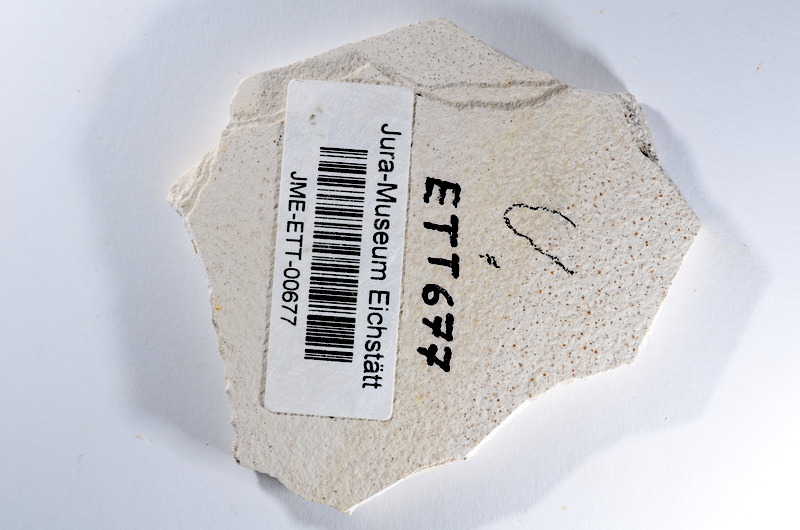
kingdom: Animalia
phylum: Chordata
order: Salmoniformes
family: Orthogonikleithridae
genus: Orthogonikleithrus
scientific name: Orthogonikleithrus hoelli
